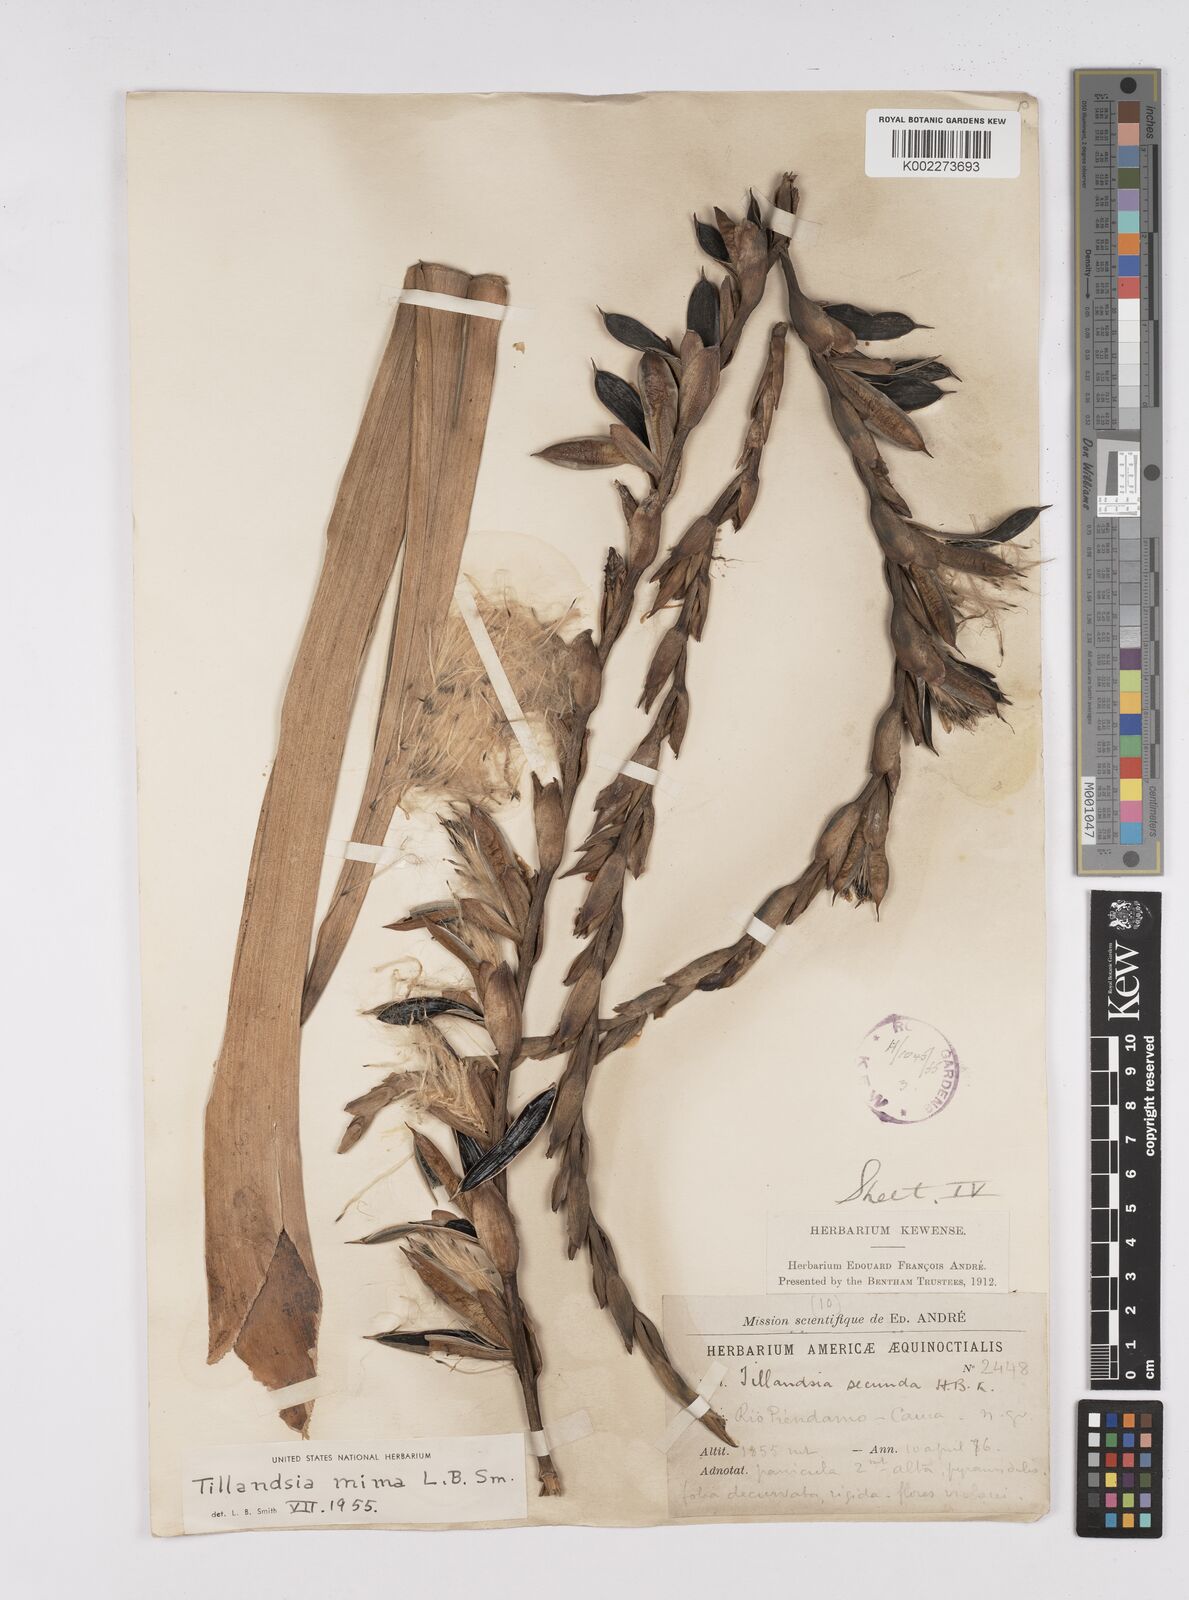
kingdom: Plantae
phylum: Tracheophyta
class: Liliopsida
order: Poales
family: Bromeliaceae
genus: Tillandsia
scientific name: Tillandsia mima
